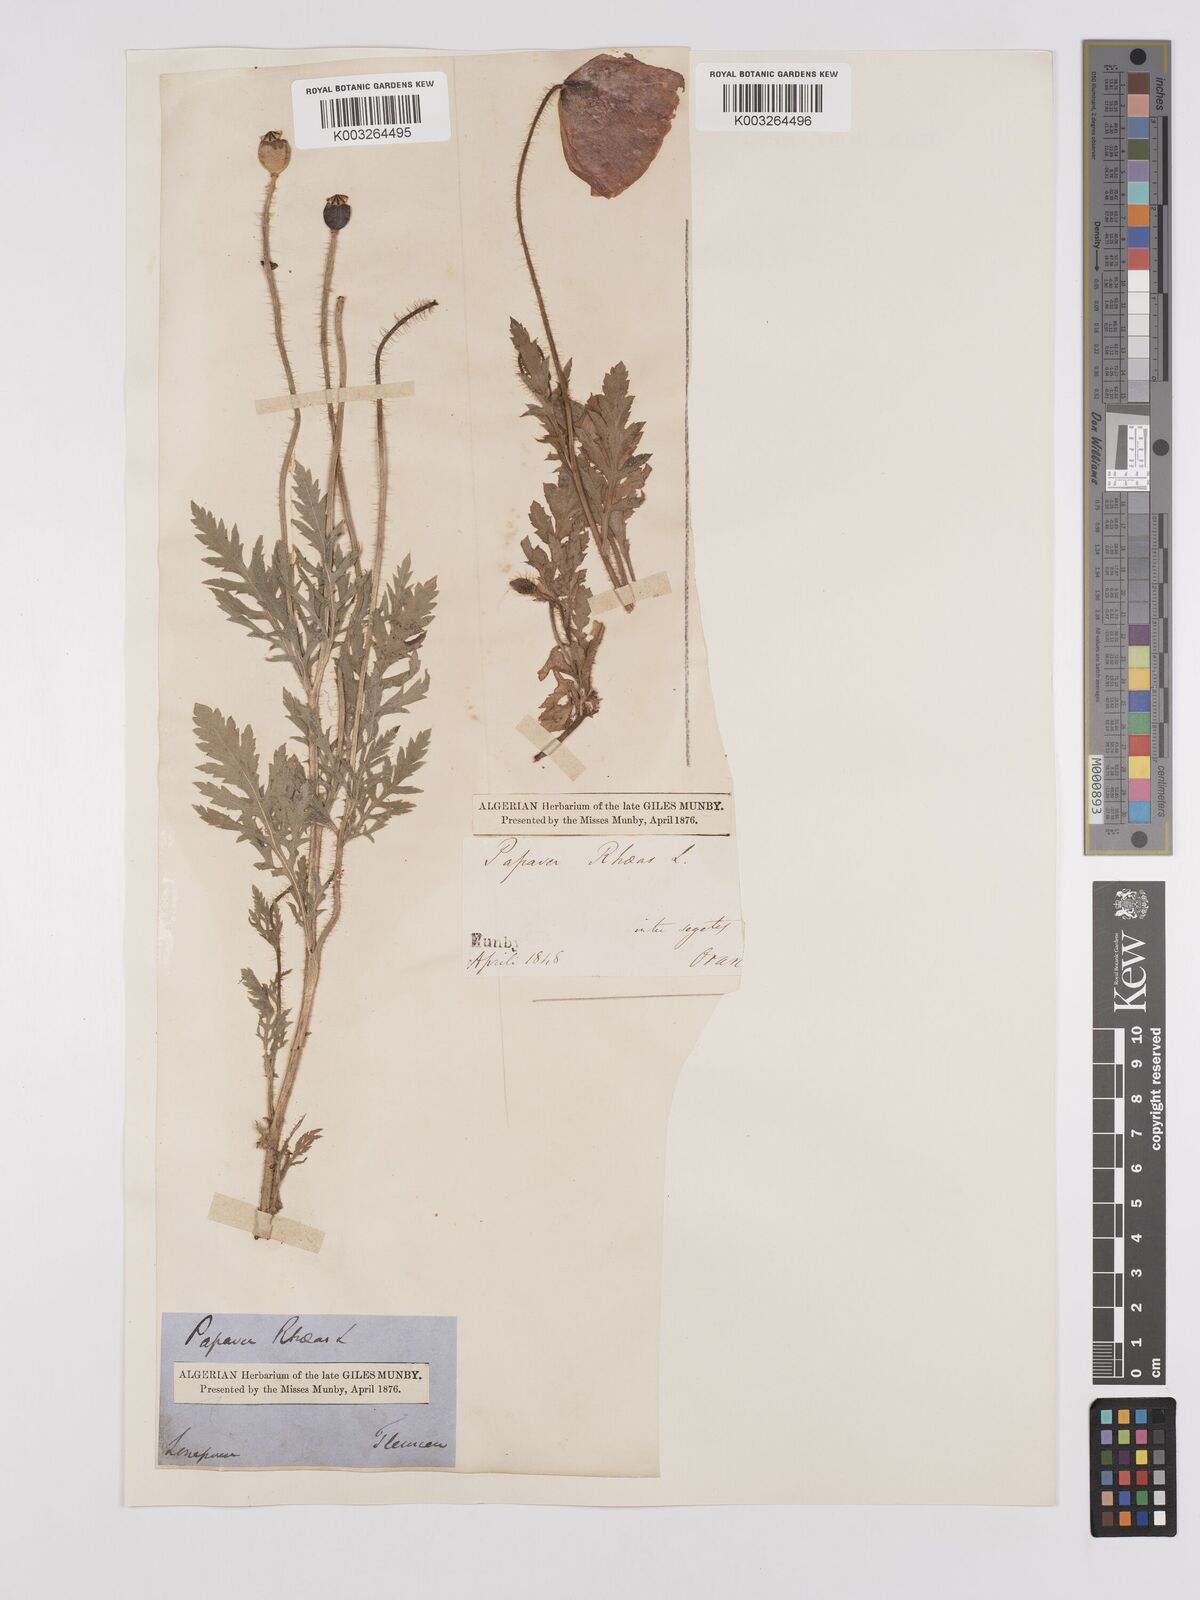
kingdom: Plantae
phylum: Tracheophyta
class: Magnoliopsida
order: Ranunculales
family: Papaveraceae
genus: Papaver
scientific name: Papaver rhoeas
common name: Corn poppy
